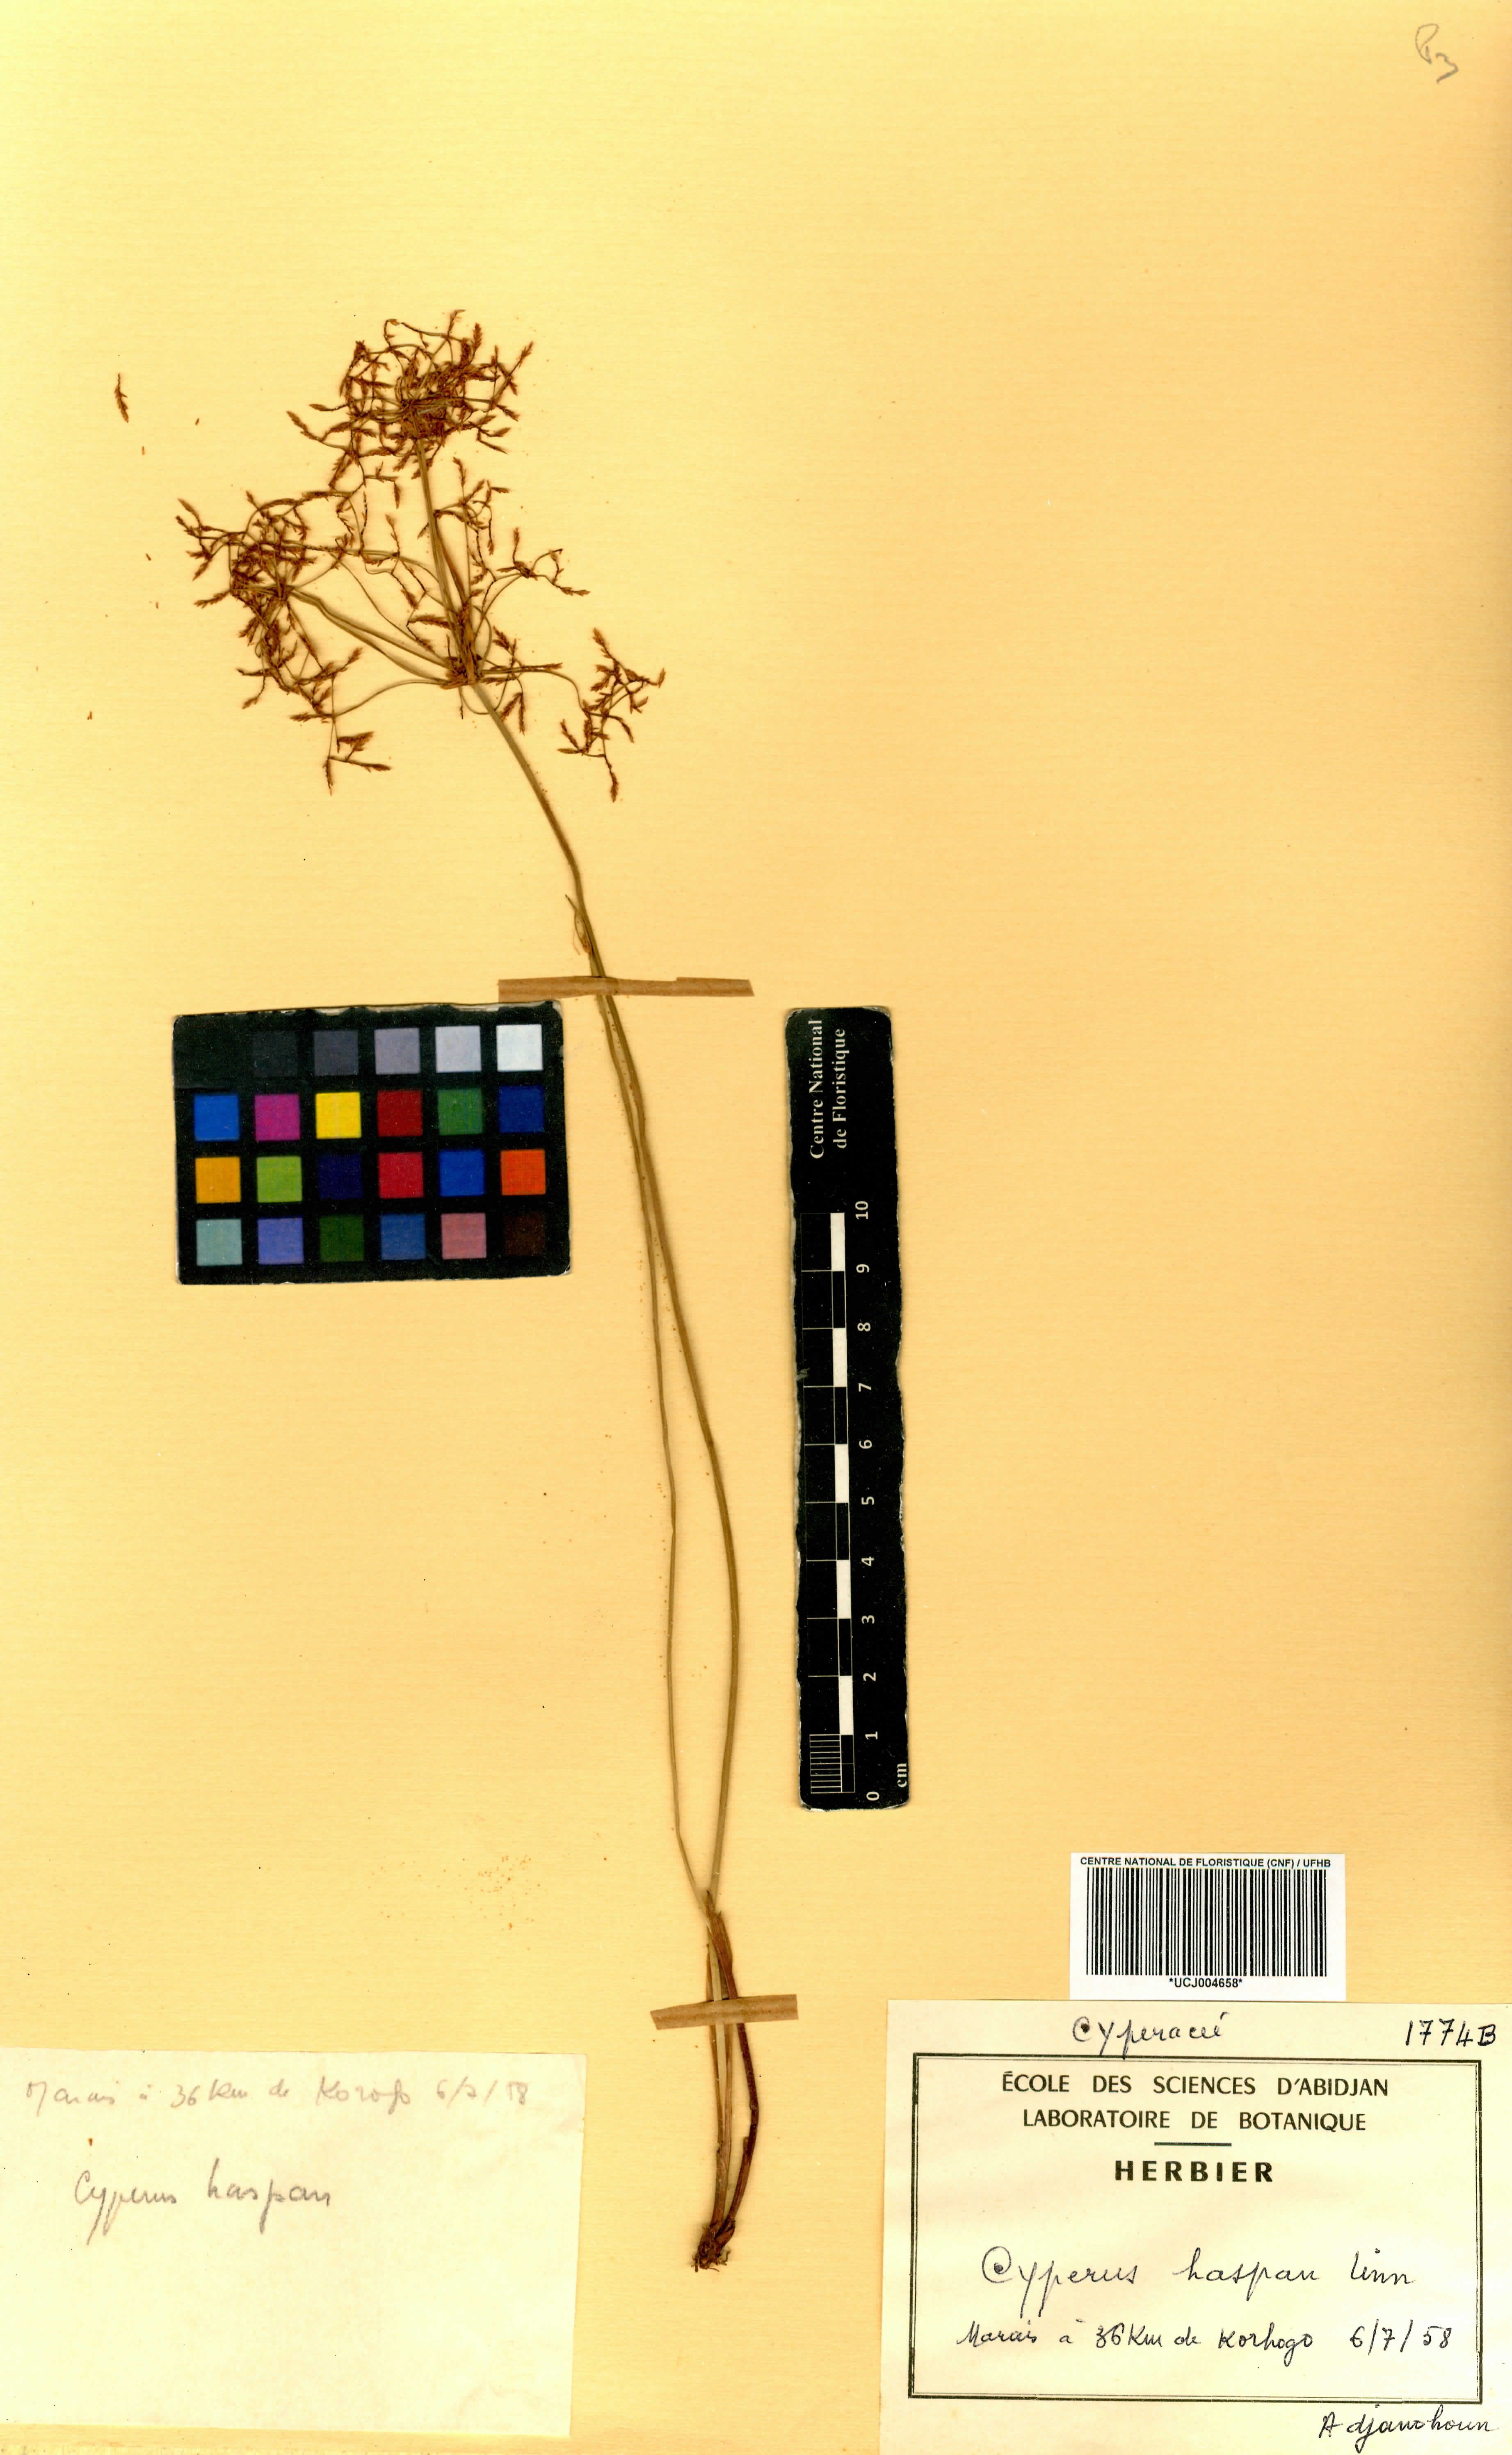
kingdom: Plantae
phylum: Tracheophyta
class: Liliopsida
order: Poales
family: Cyperaceae
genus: Cyperus
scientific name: Cyperus haspan
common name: Haspan flatsedge
